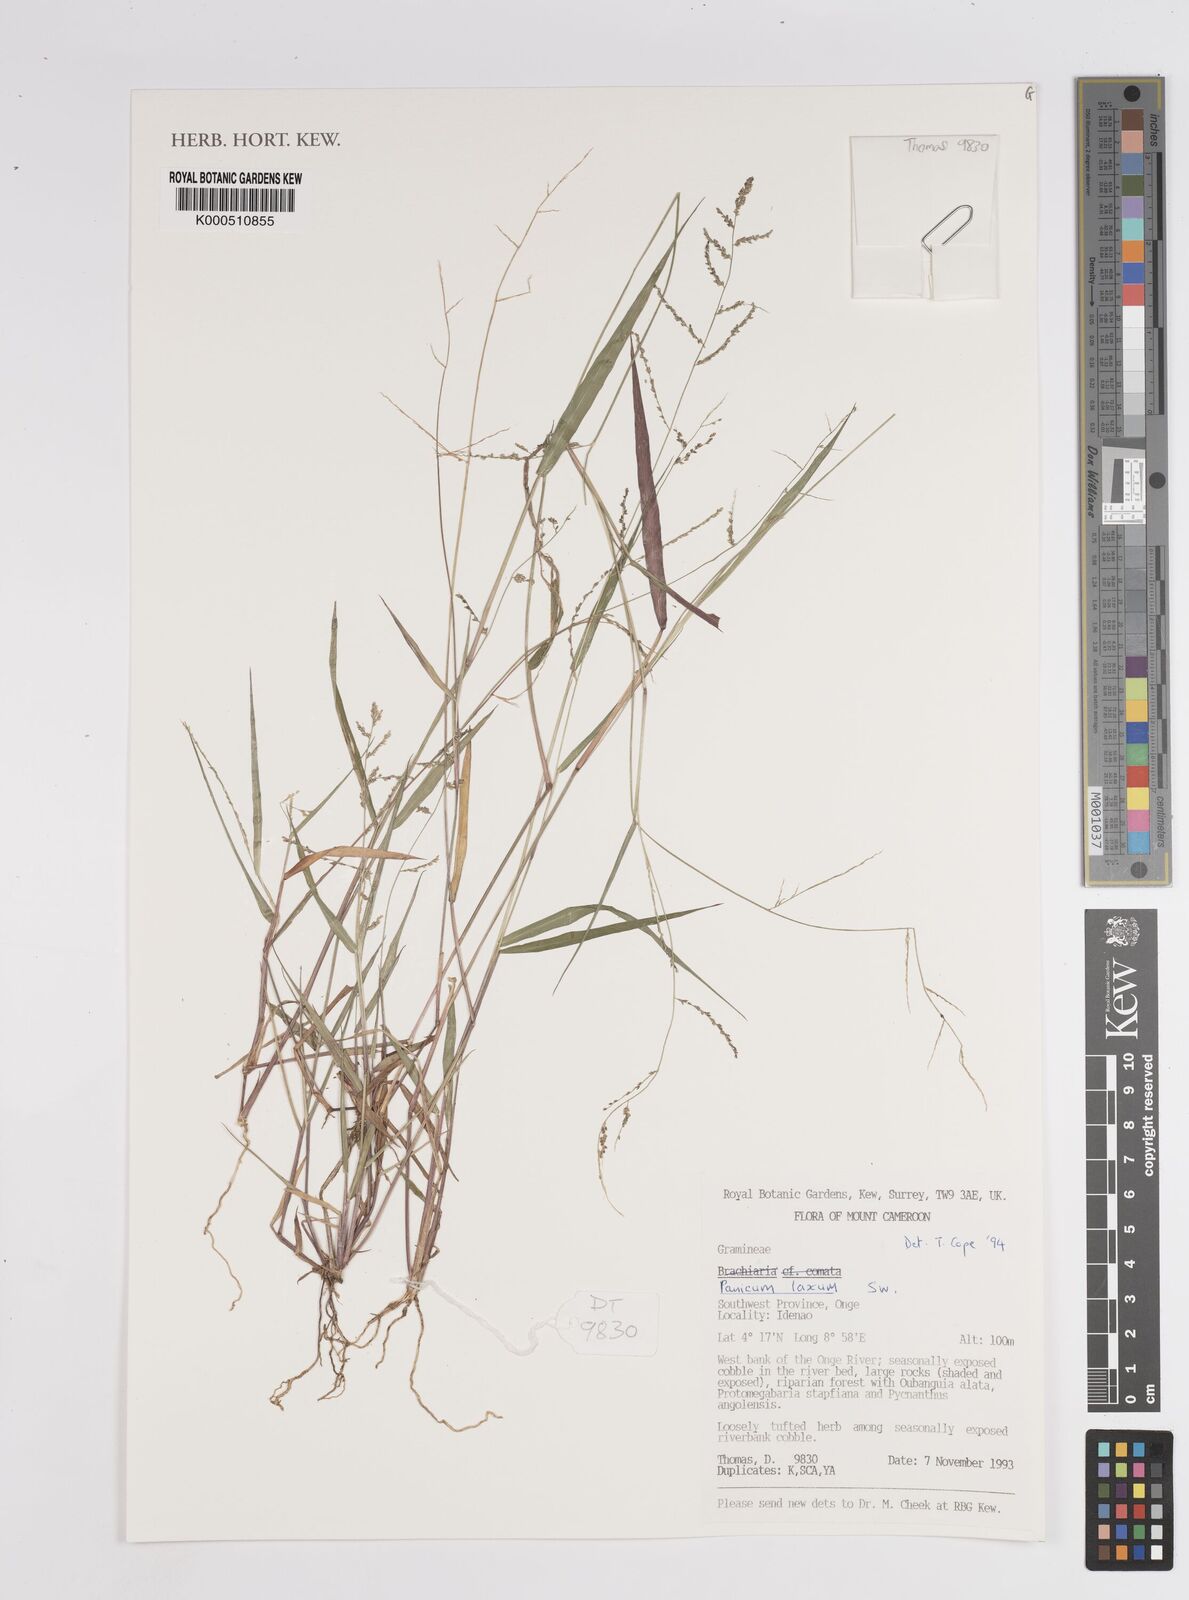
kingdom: Plantae
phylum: Tracheophyta
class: Liliopsida
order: Poales
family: Poaceae
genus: Steinchisma
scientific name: Steinchisma laxum
